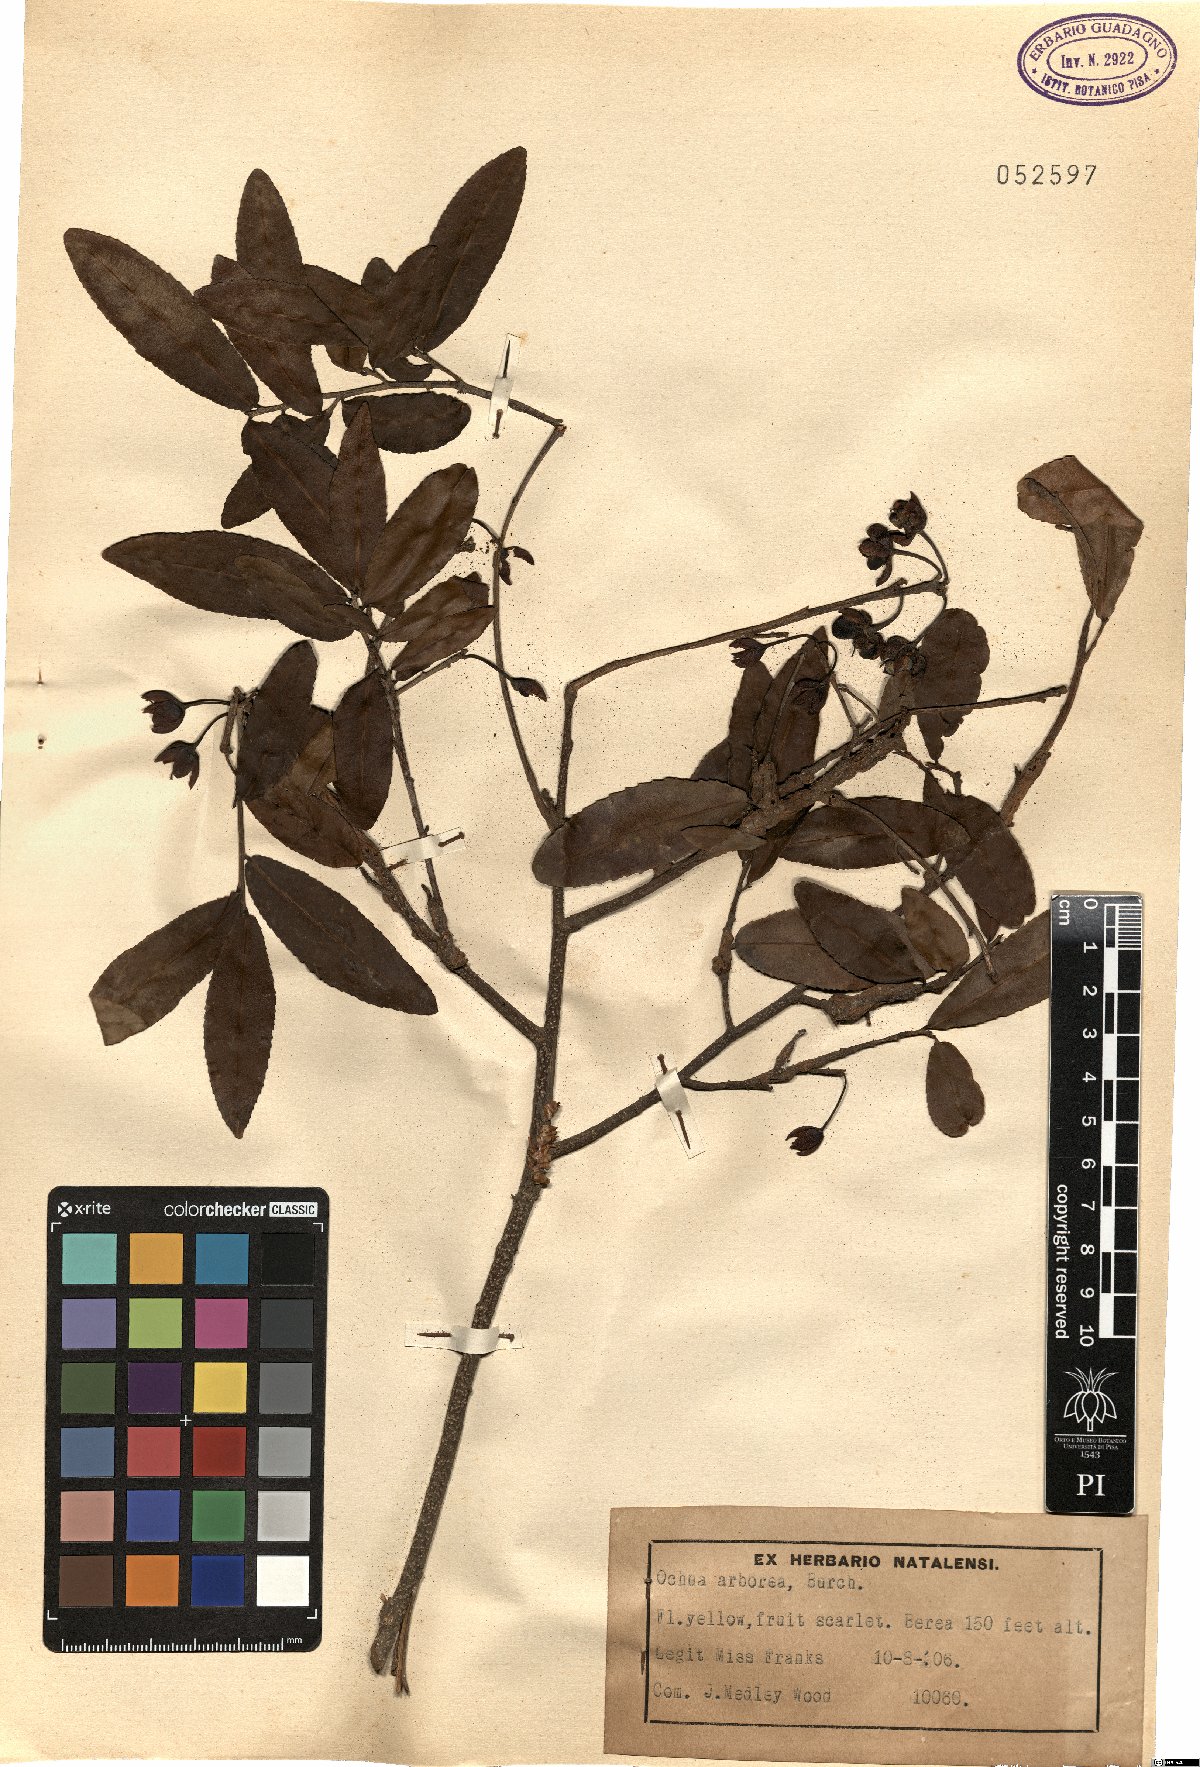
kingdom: Plantae
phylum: Tracheophyta
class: Magnoliopsida
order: Malpighiales
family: Ochnaceae
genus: Ochna
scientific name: Ochna arborea
